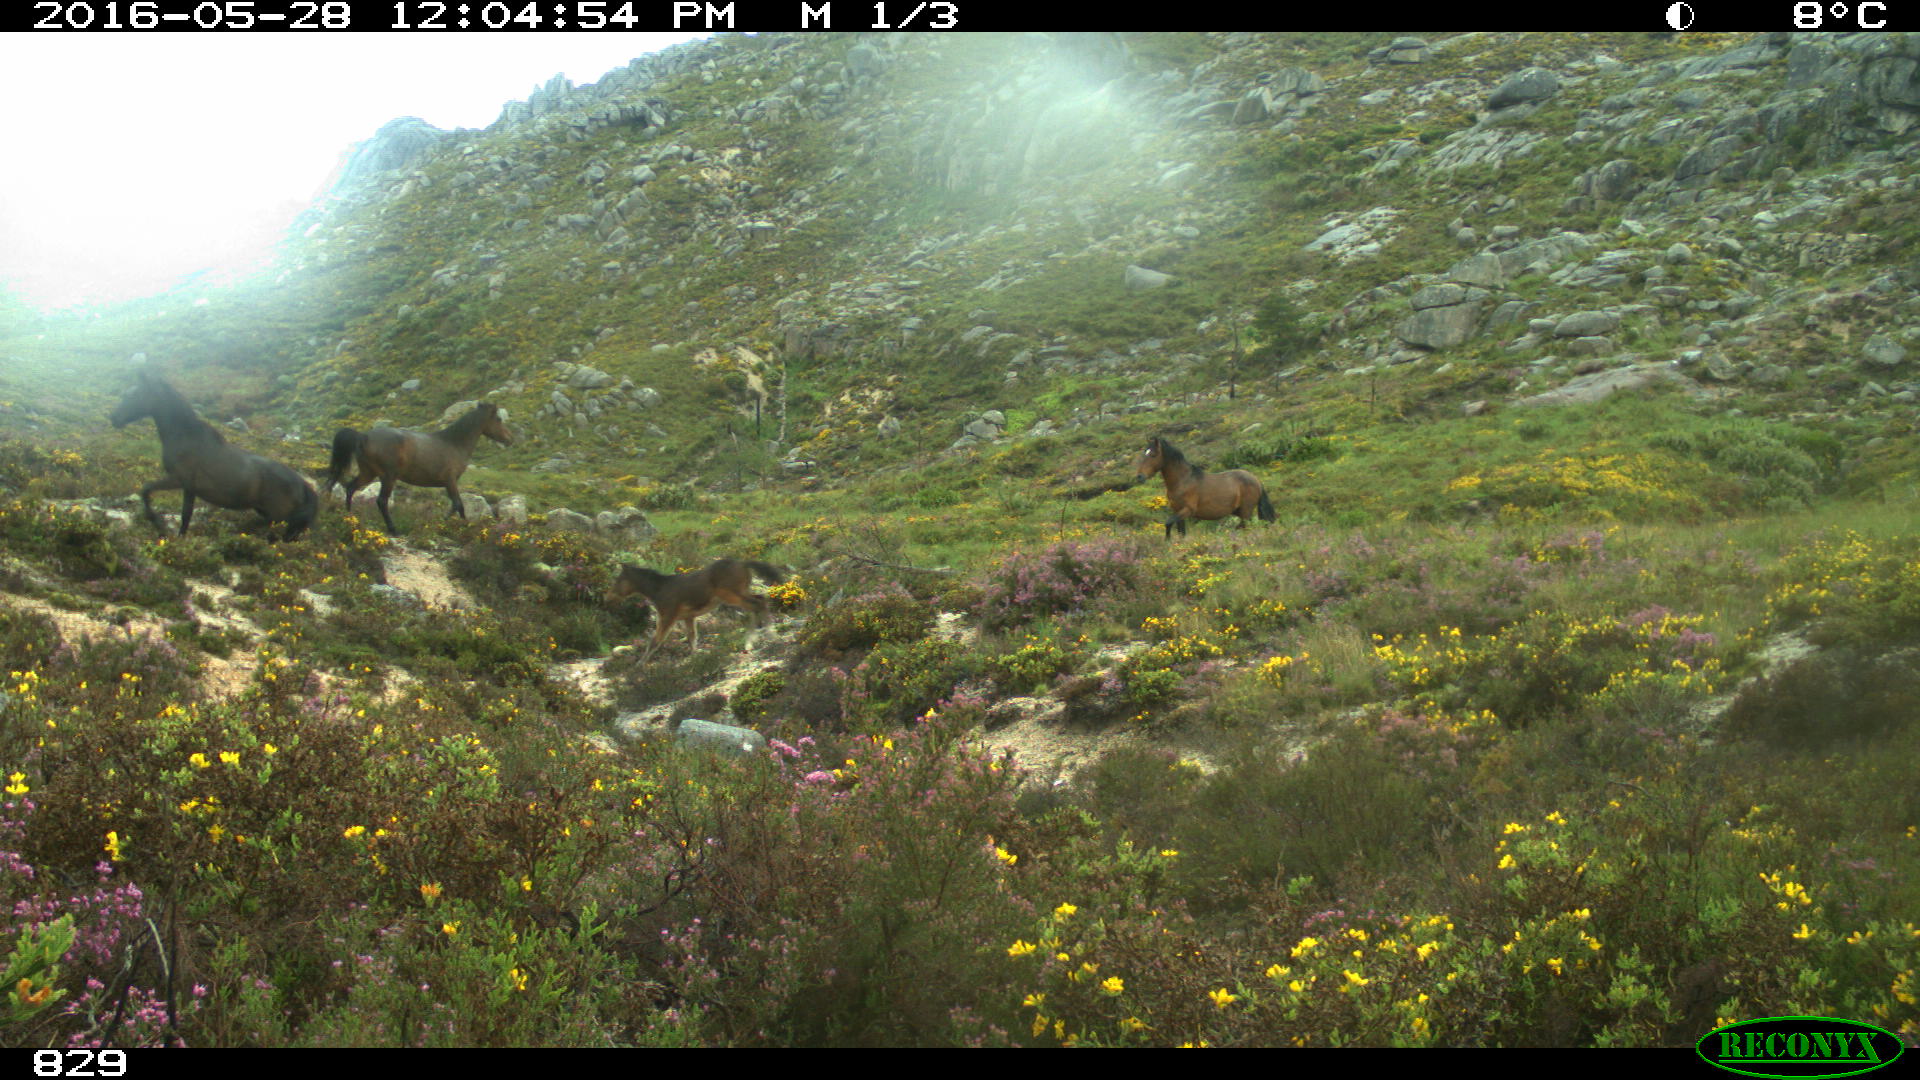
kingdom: Animalia
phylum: Chordata
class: Mammalia
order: Perissodactyla
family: Equidae
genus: Equus
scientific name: Equus caballus
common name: Horse
